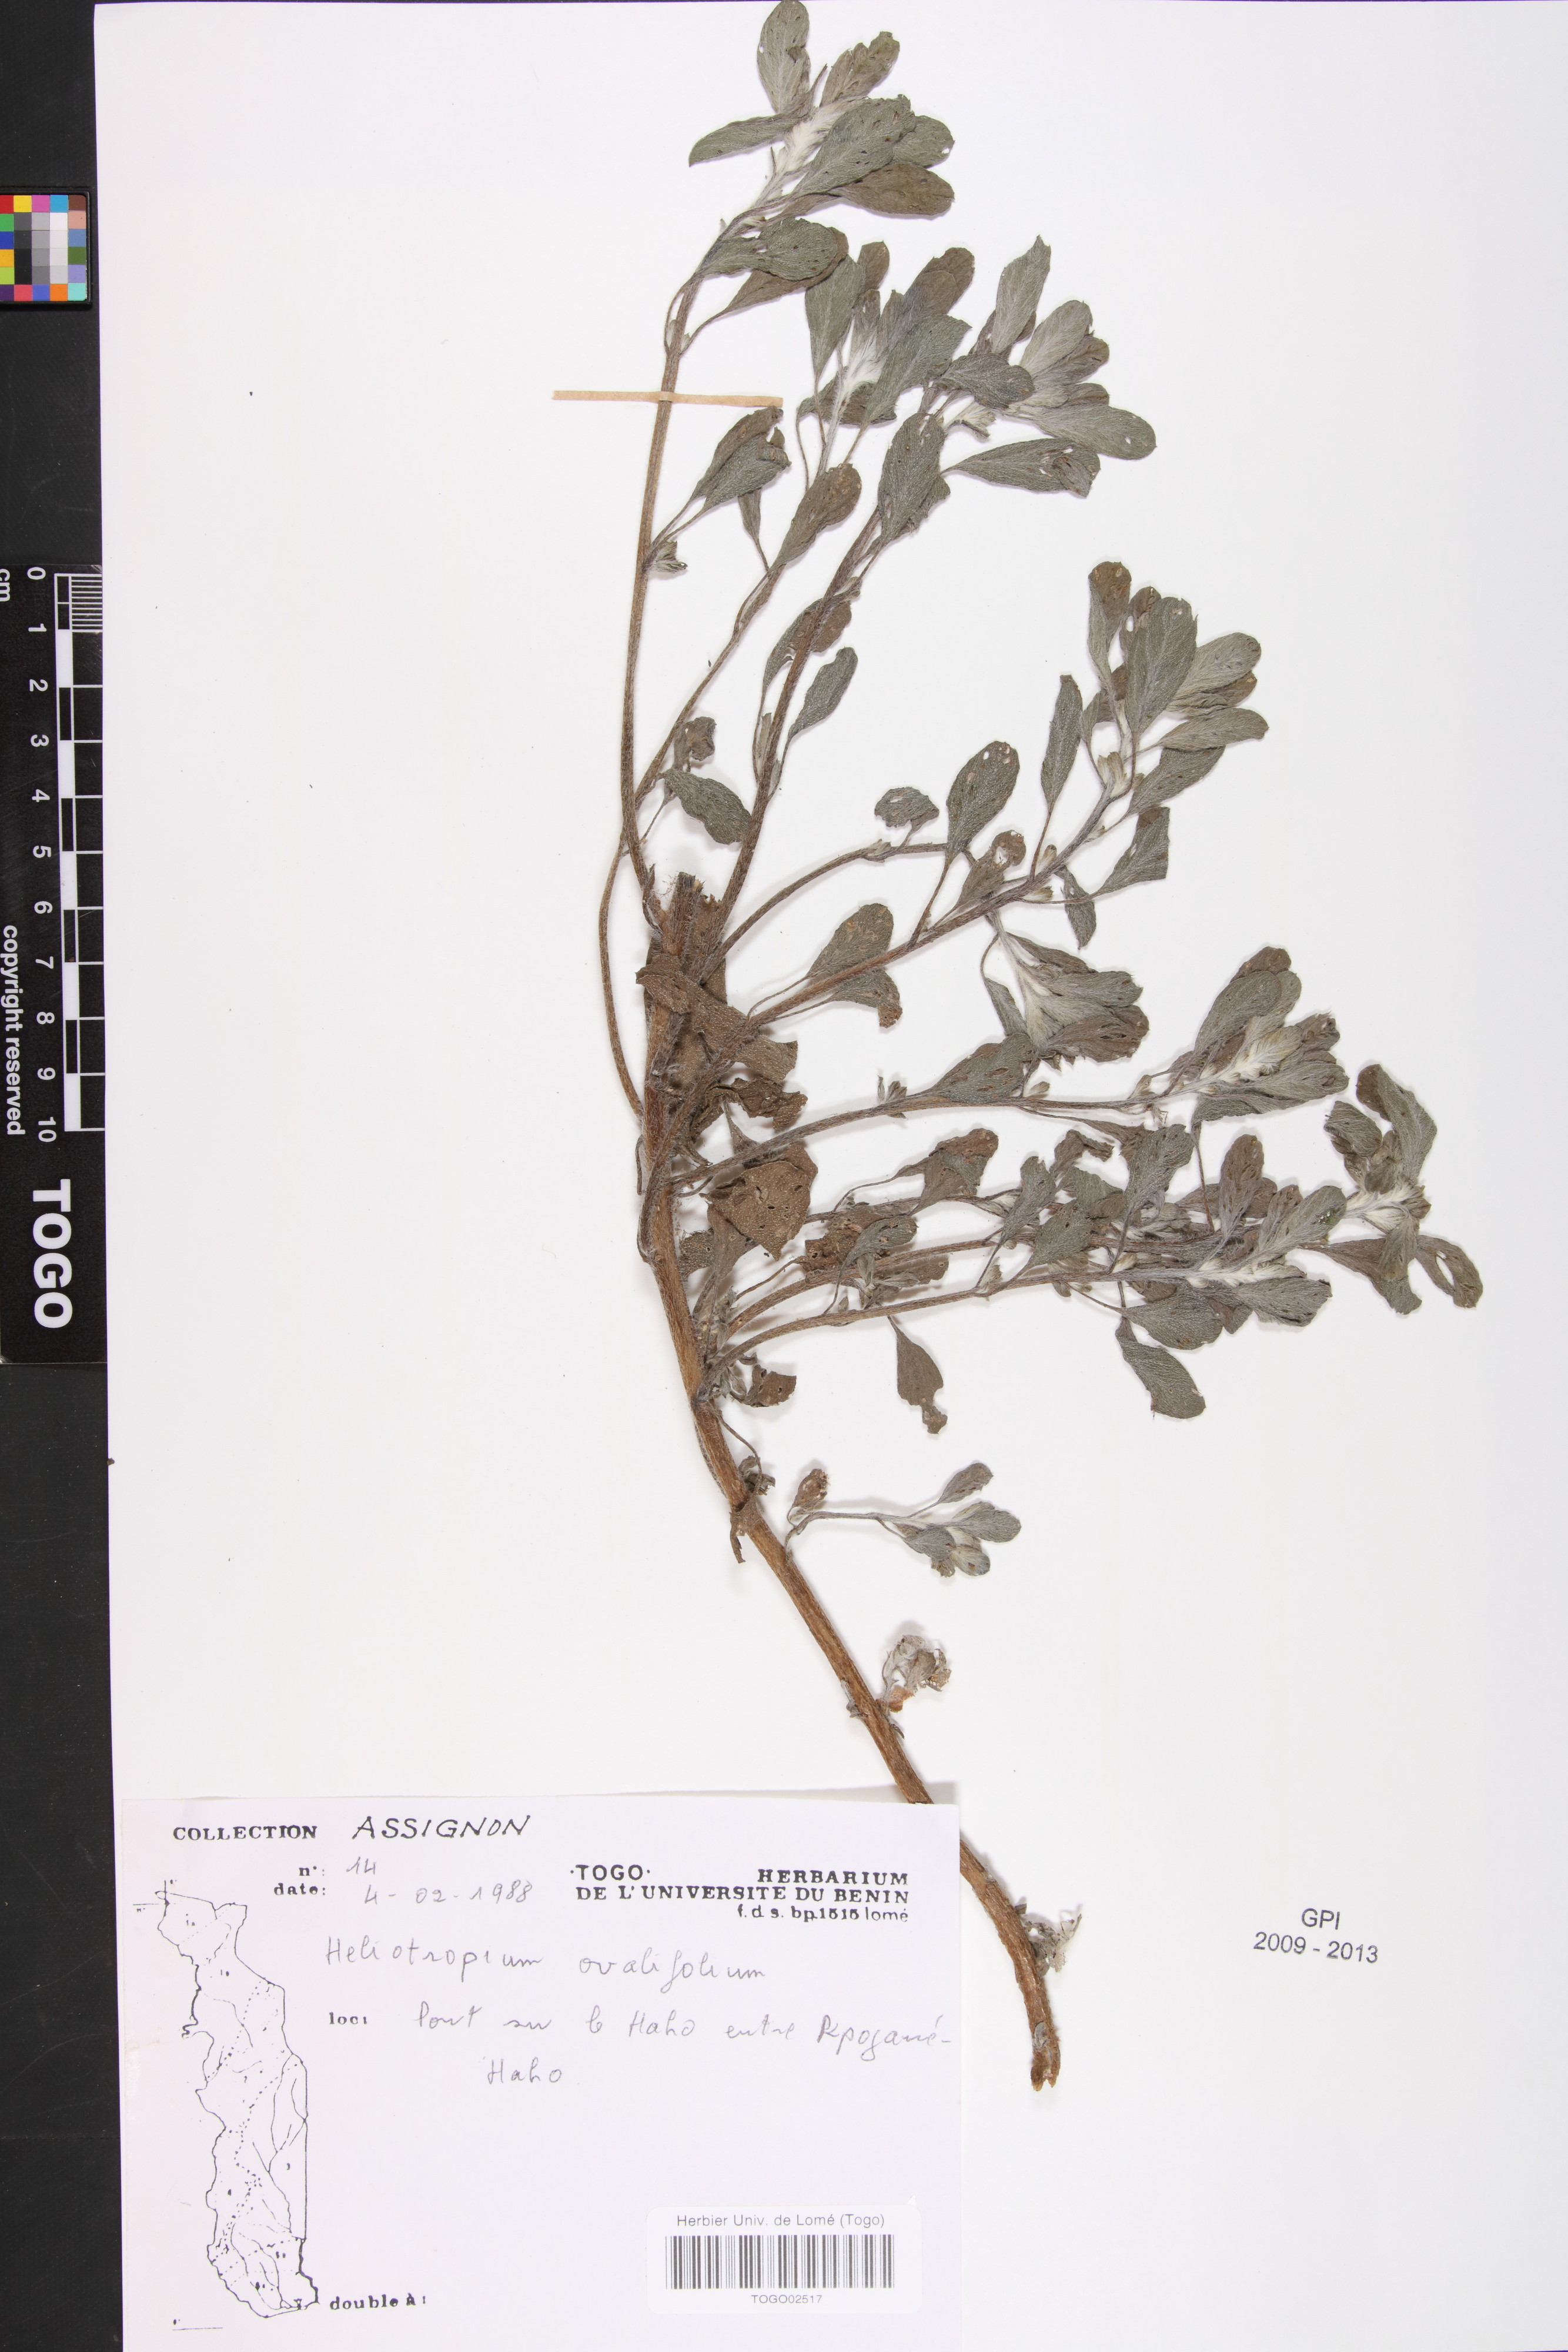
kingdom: Plantae
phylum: Tracheophyta
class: Magnoliopsida
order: Boraginales
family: Heliotropiaceae
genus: Euploca
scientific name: Euploca ovalifolia
